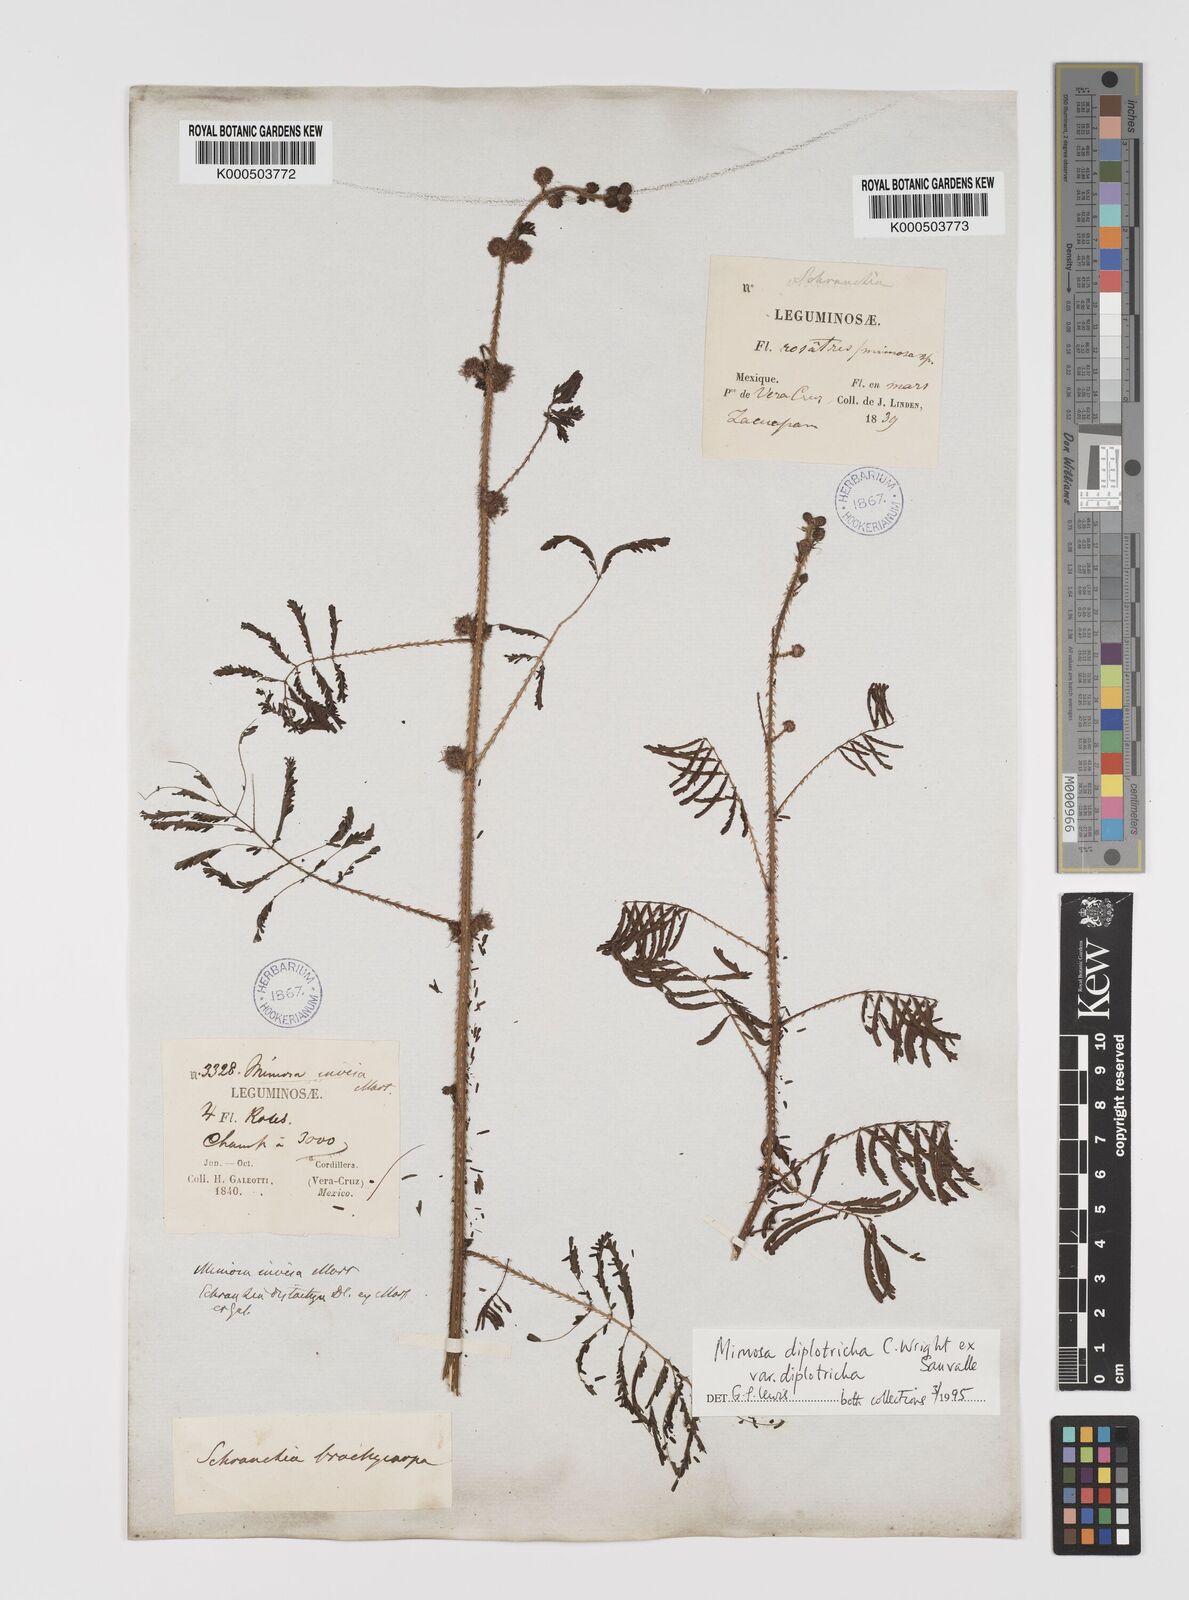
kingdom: Plantae
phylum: Tracheophyta
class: Magnoliopsida
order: Fabales
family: Fabaceae
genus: Mimosa
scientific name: Mimosa diplotricha
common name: Giant sensitive-plant
